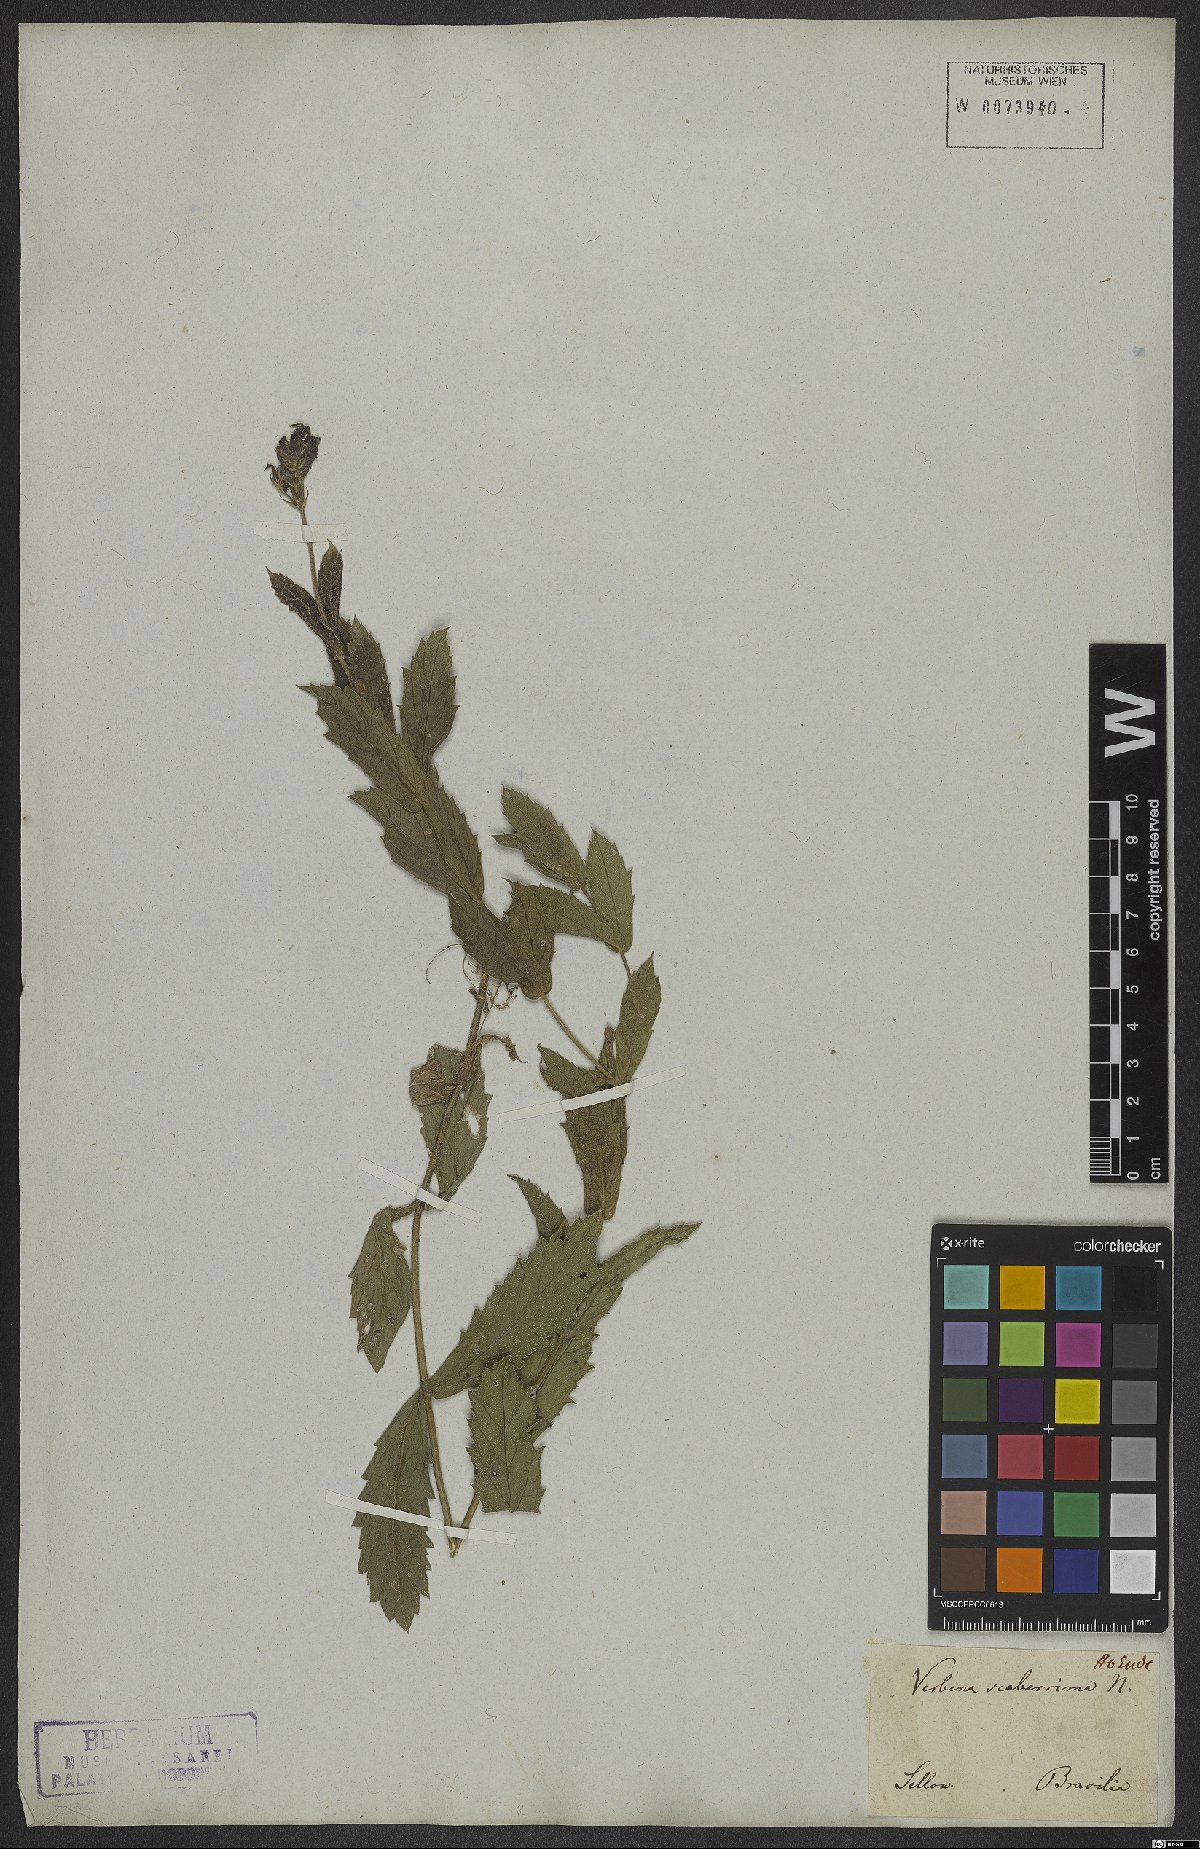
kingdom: Plantae
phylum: Tracheophyta
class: Magnoliopsida
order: Lamiales
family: Verbenaceae
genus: Verbena
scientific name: Verbena rigida
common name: Slender vervain
